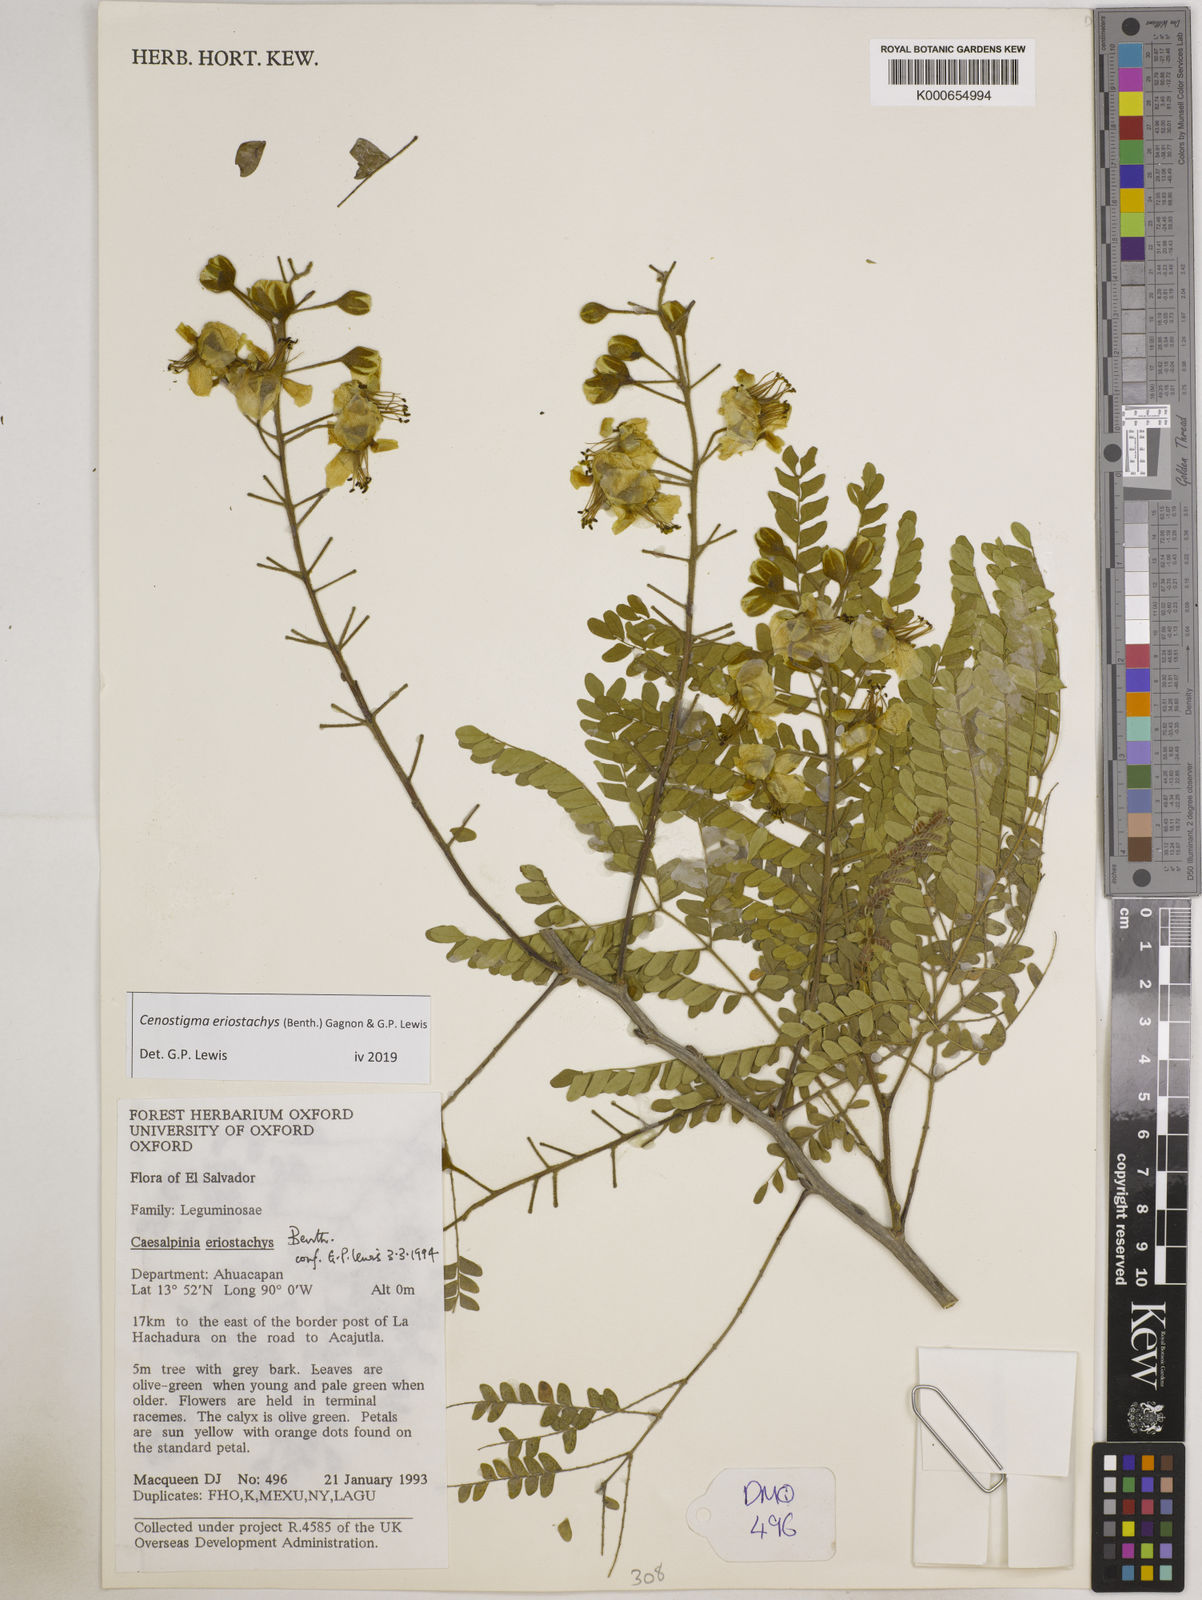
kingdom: Plantae
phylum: Tracheophyta
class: Magnoliopsida
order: Fabales
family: Fabaceae
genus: Cenostigma
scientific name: Cenostigma eriostachys
